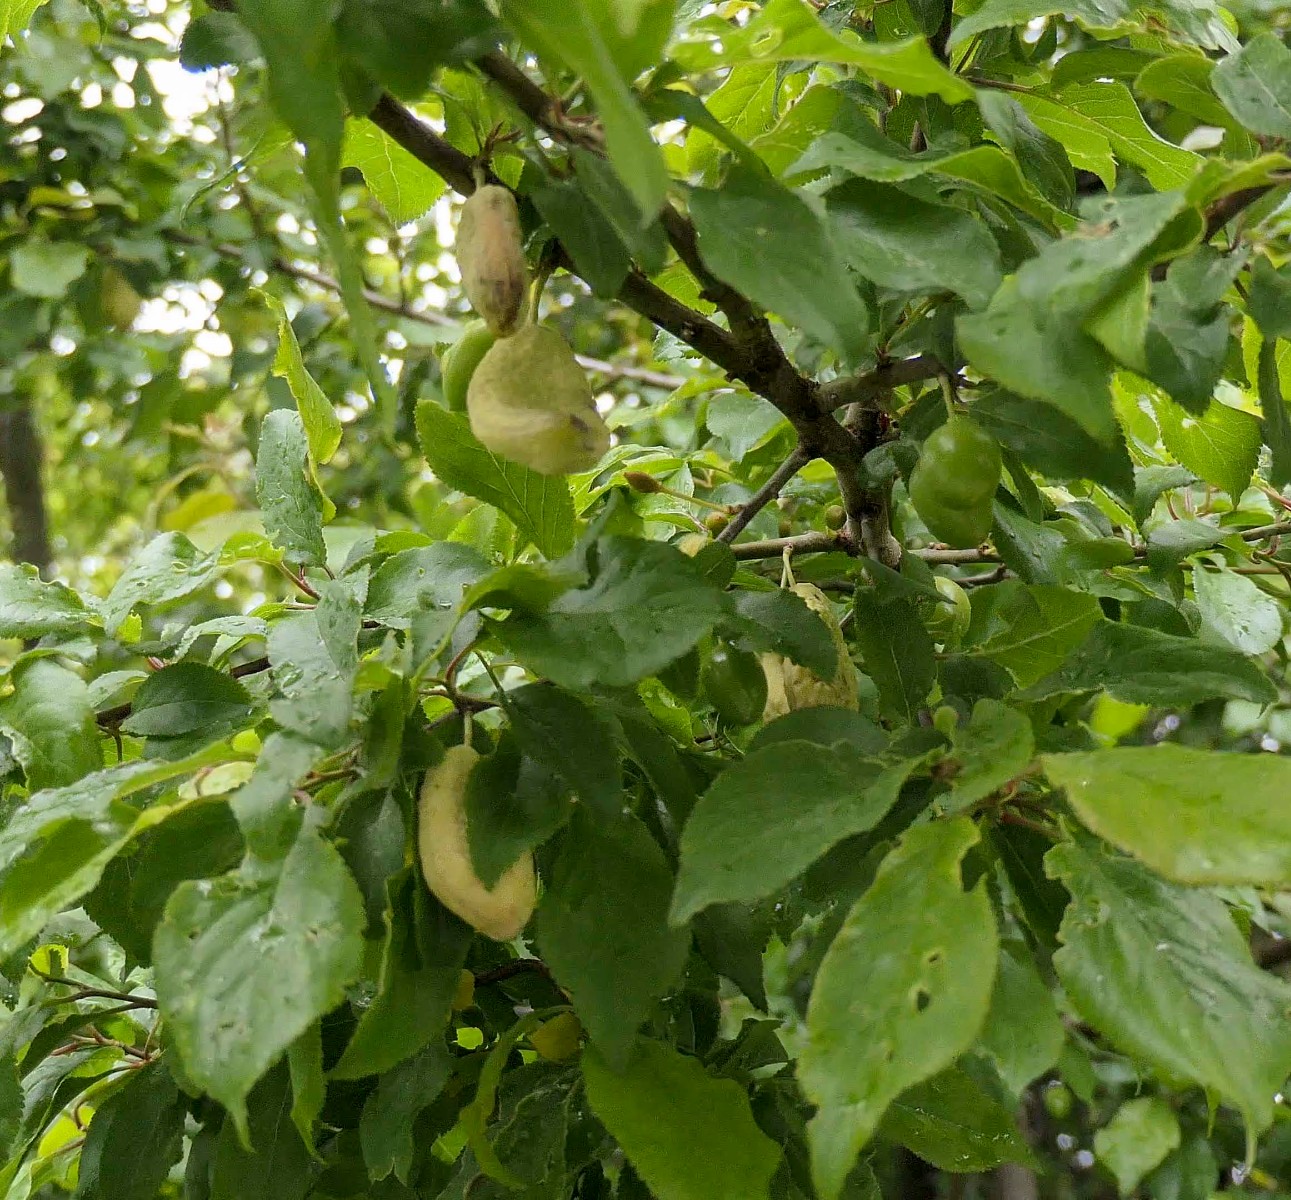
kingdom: Fungi
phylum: Ascomycota
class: Taphrinomycetes
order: Taphrinales
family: Taphrinaceae
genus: Taphrina
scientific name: Taphrina pruni
